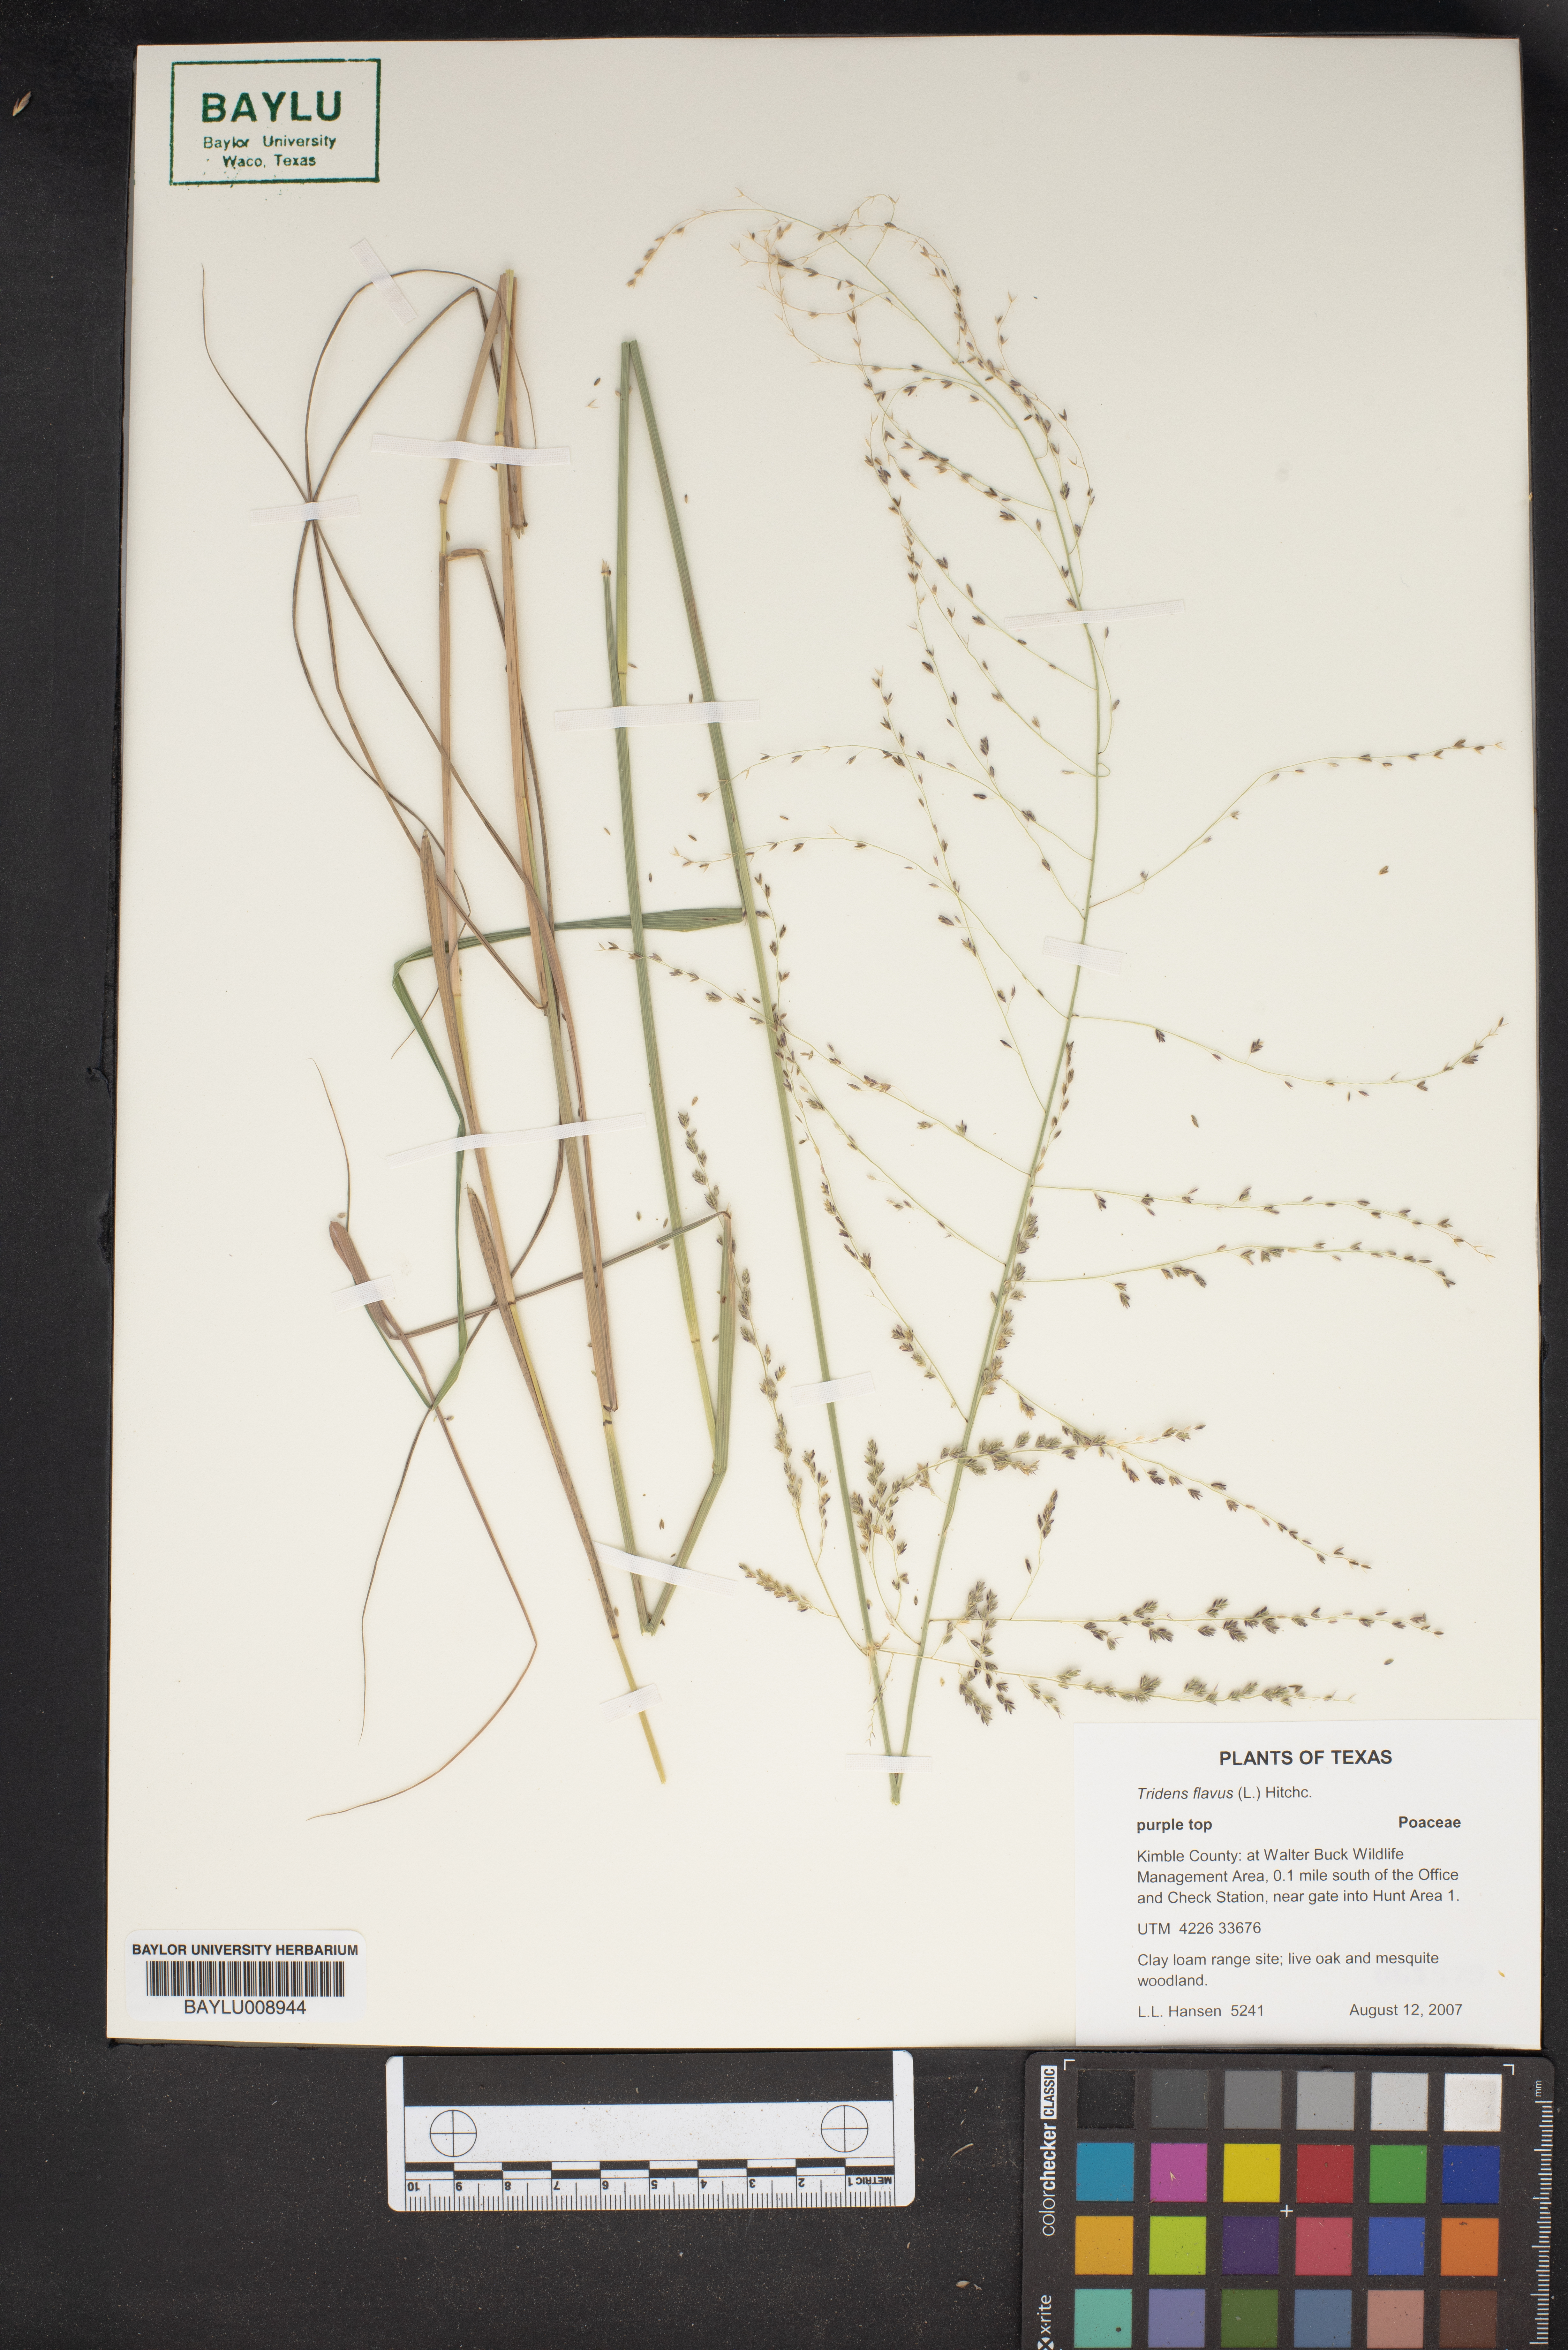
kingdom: Plantae
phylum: Tracheophyta
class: Liliopsida
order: Poales
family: Poaceae
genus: Tridens
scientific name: Tridens flavus
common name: Purpletop
